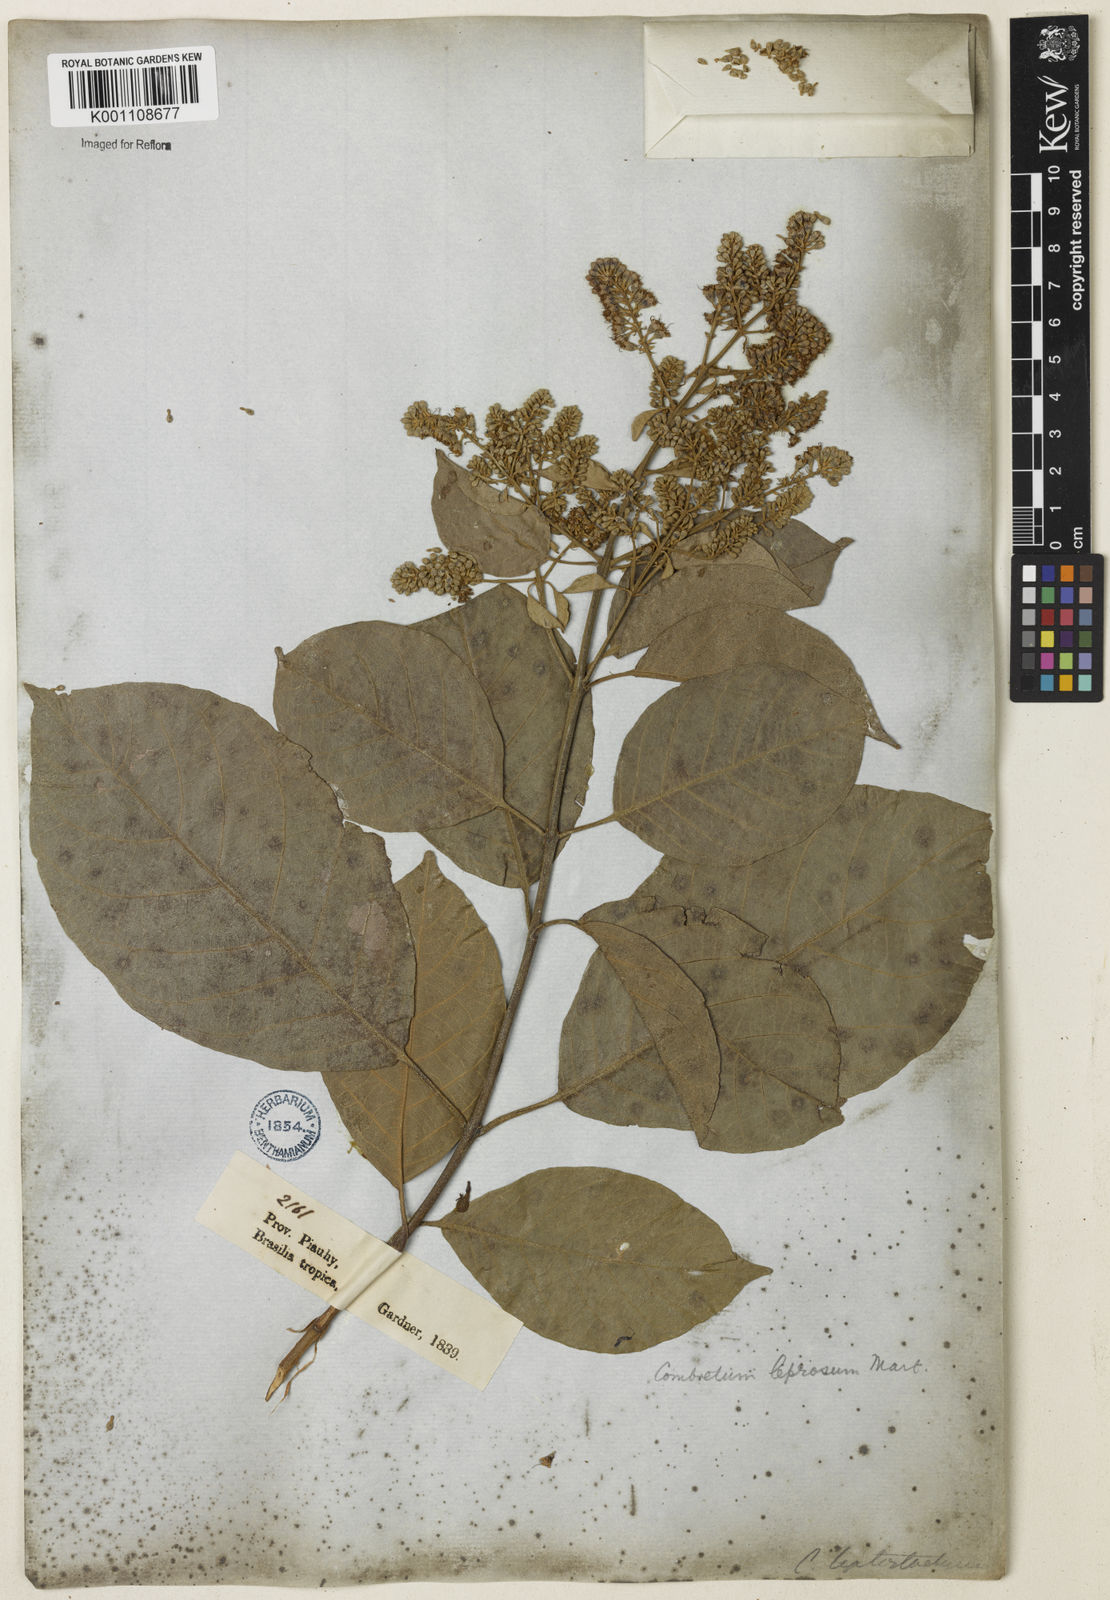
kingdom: Plantae
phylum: Tracheophyta
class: Magnoliopsida
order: Myrtales
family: Combretaceae
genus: Combretum
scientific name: Combretum leprosum
